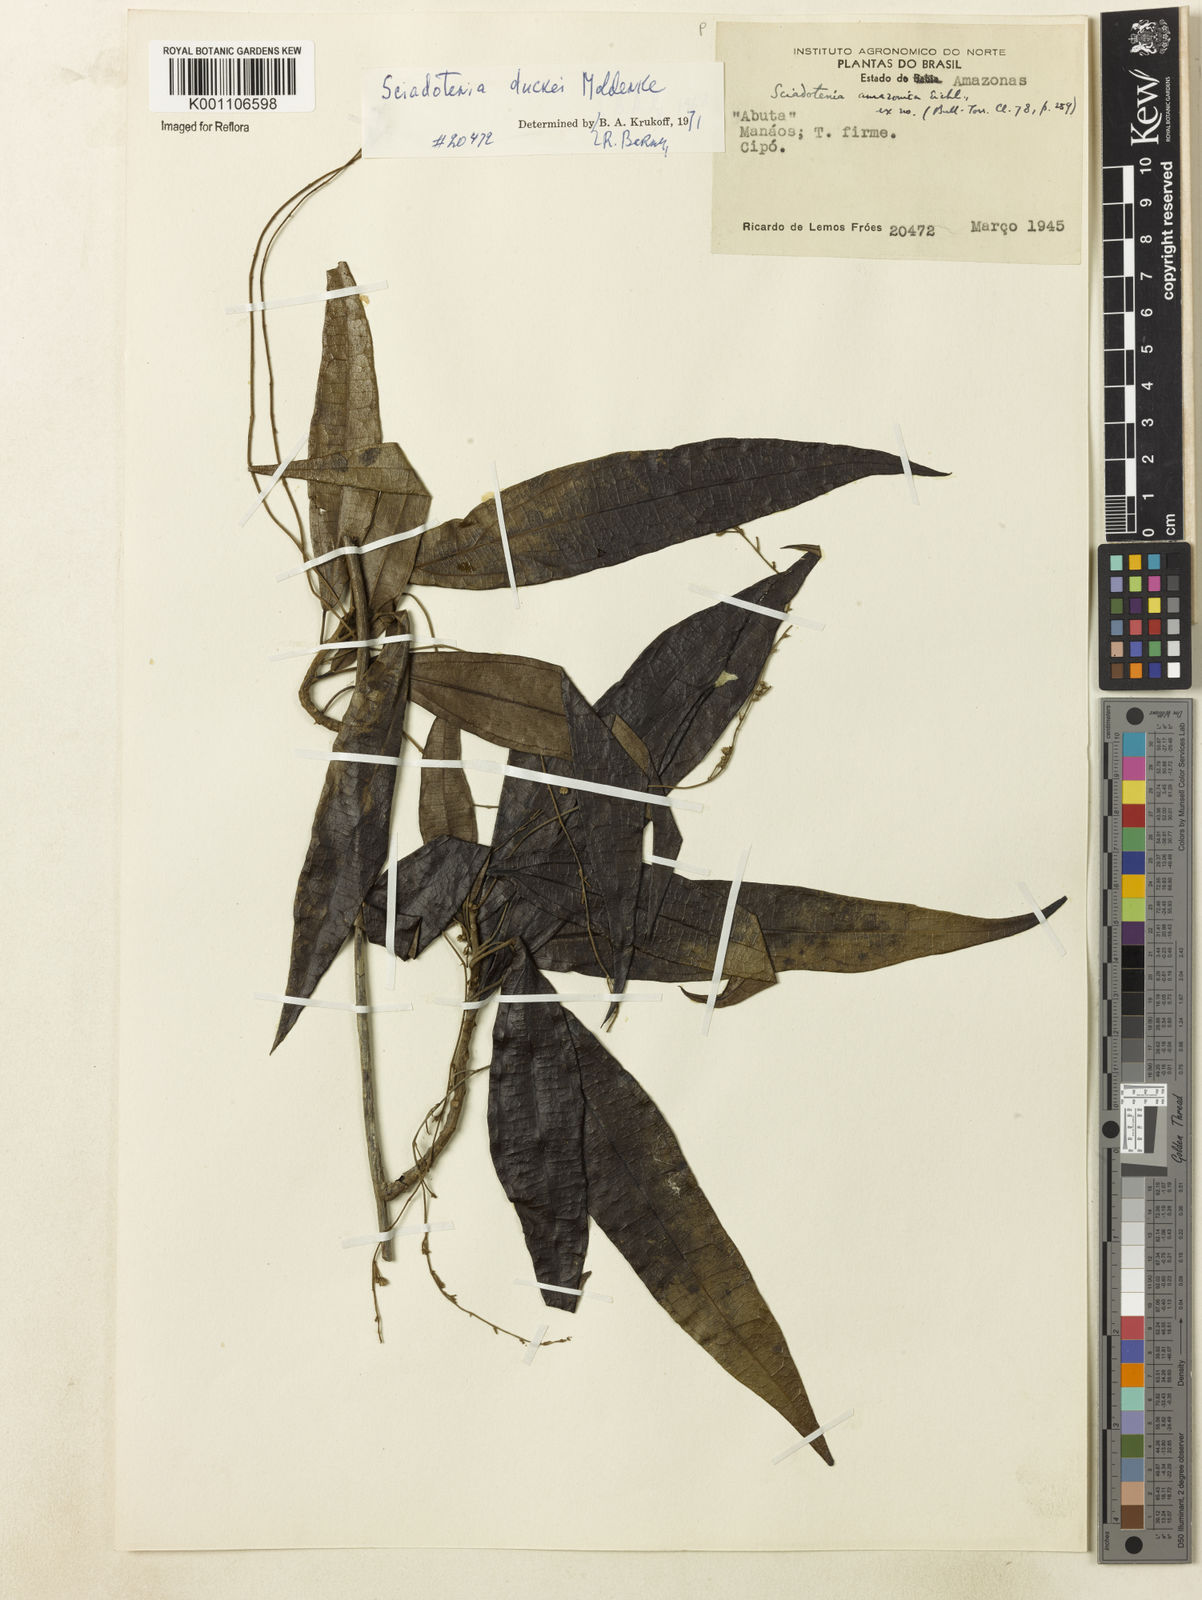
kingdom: Plantae
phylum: Tracheophyta
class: Magnoliopsida
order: Ranunculales
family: Menispermaceae
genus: Sciadotenia
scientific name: Sciadotenia duckei
